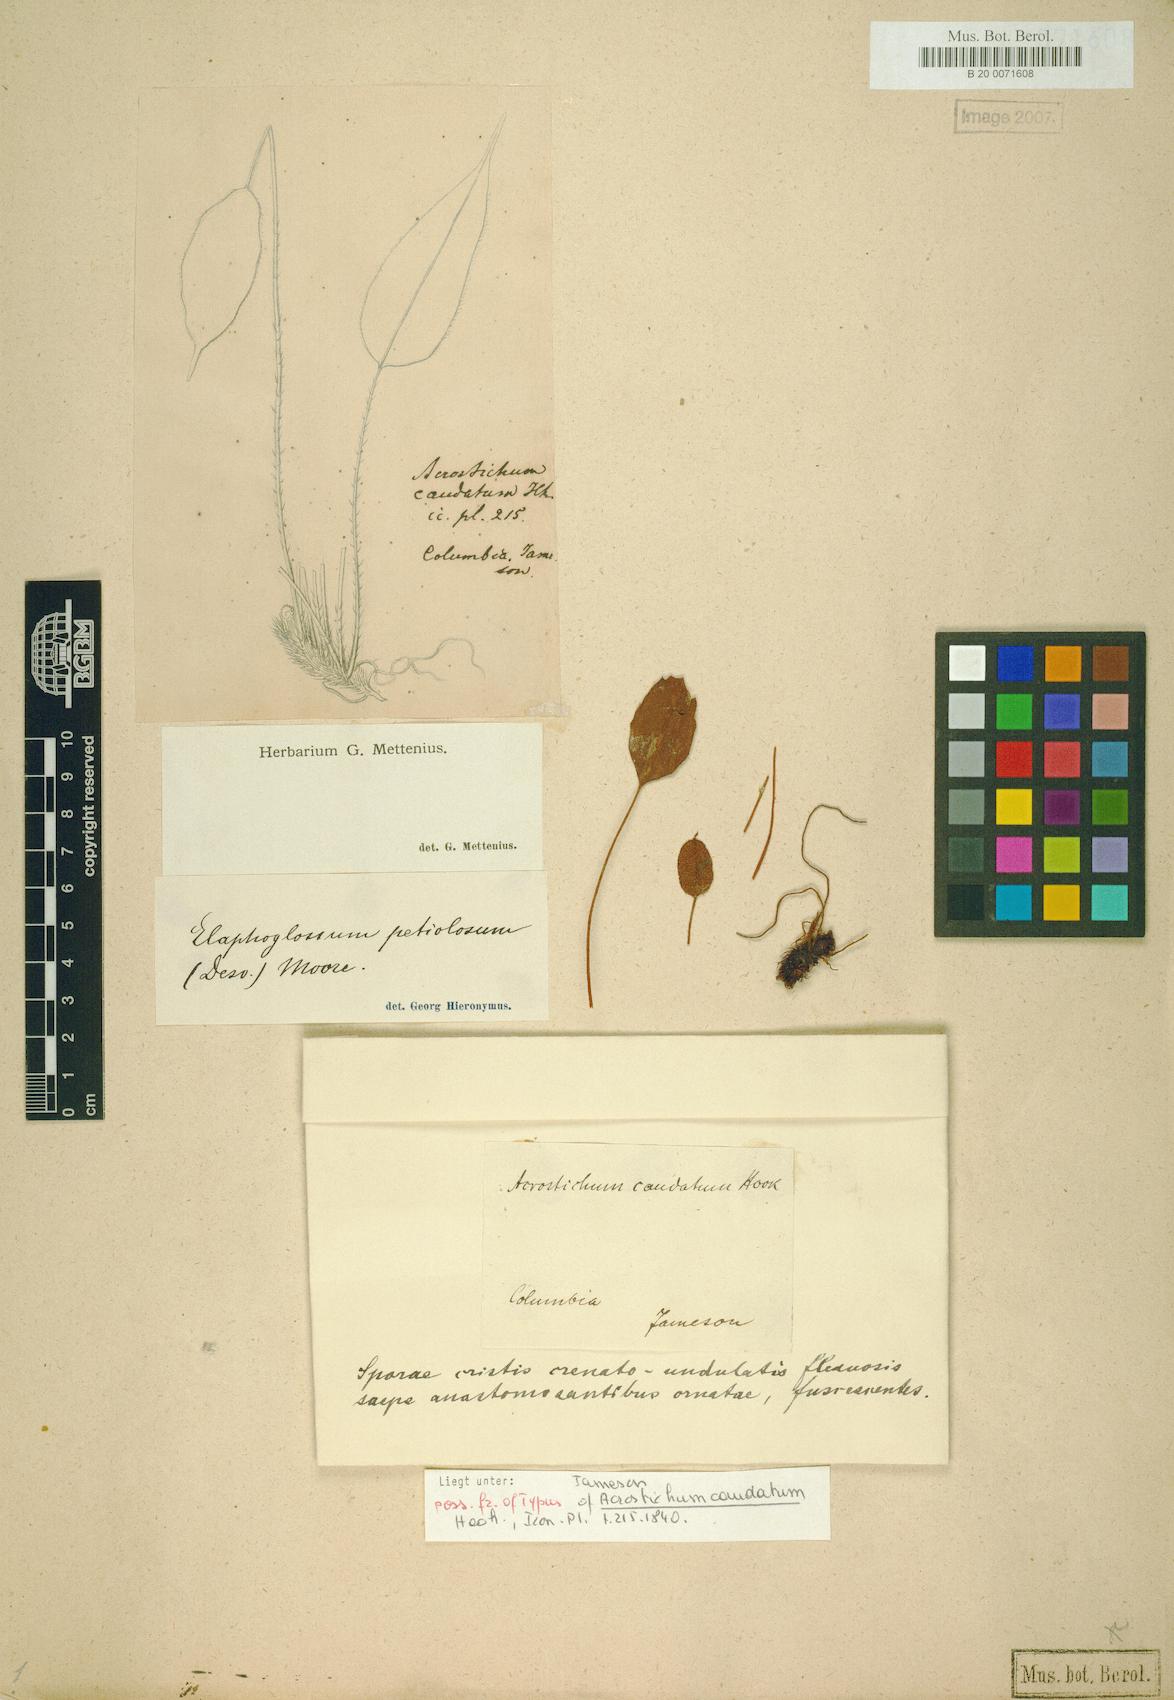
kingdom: Plantae
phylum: Tracheophyta
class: Polypodiopsida
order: Polypodiales
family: Dryopteridaceae
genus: Elaphoglossum
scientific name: Elaphoglossum petiolosum
